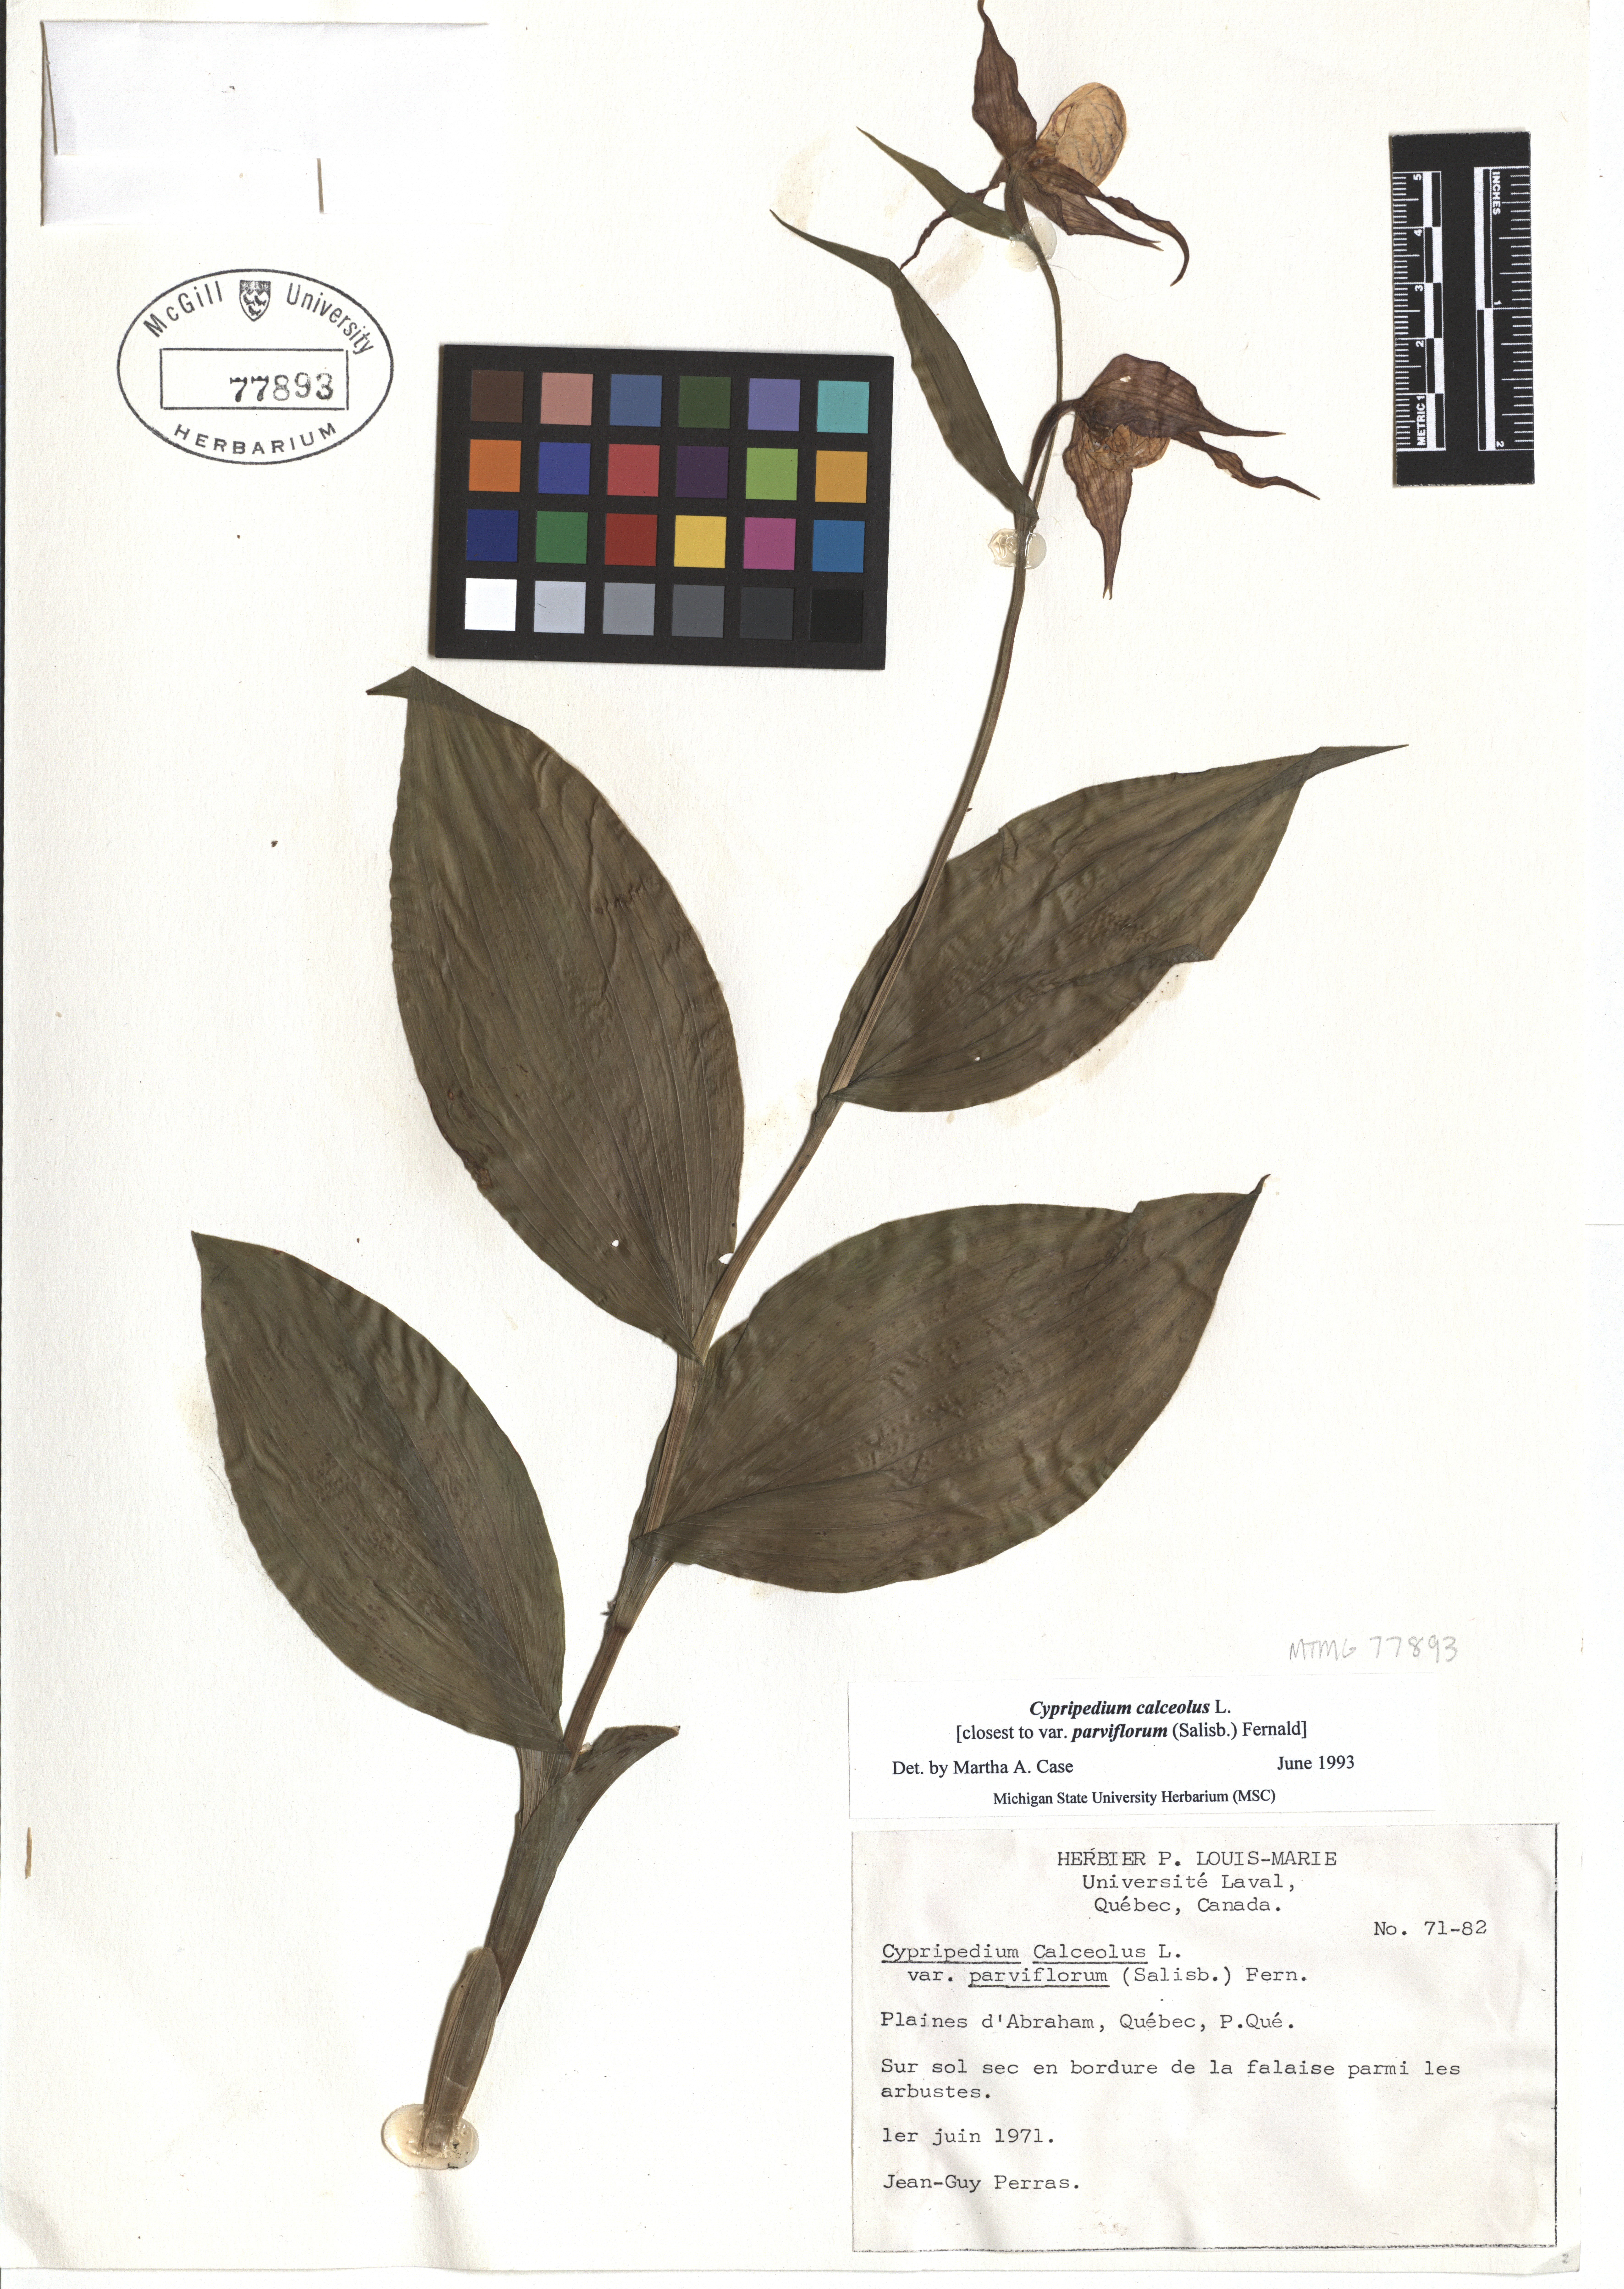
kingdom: Plantae
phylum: Tracheophyta
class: Liliopsida
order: Asparagales
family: Orchidaceae
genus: Cypripedium
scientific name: Cypripedium calceolus
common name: Lady's-slipper
